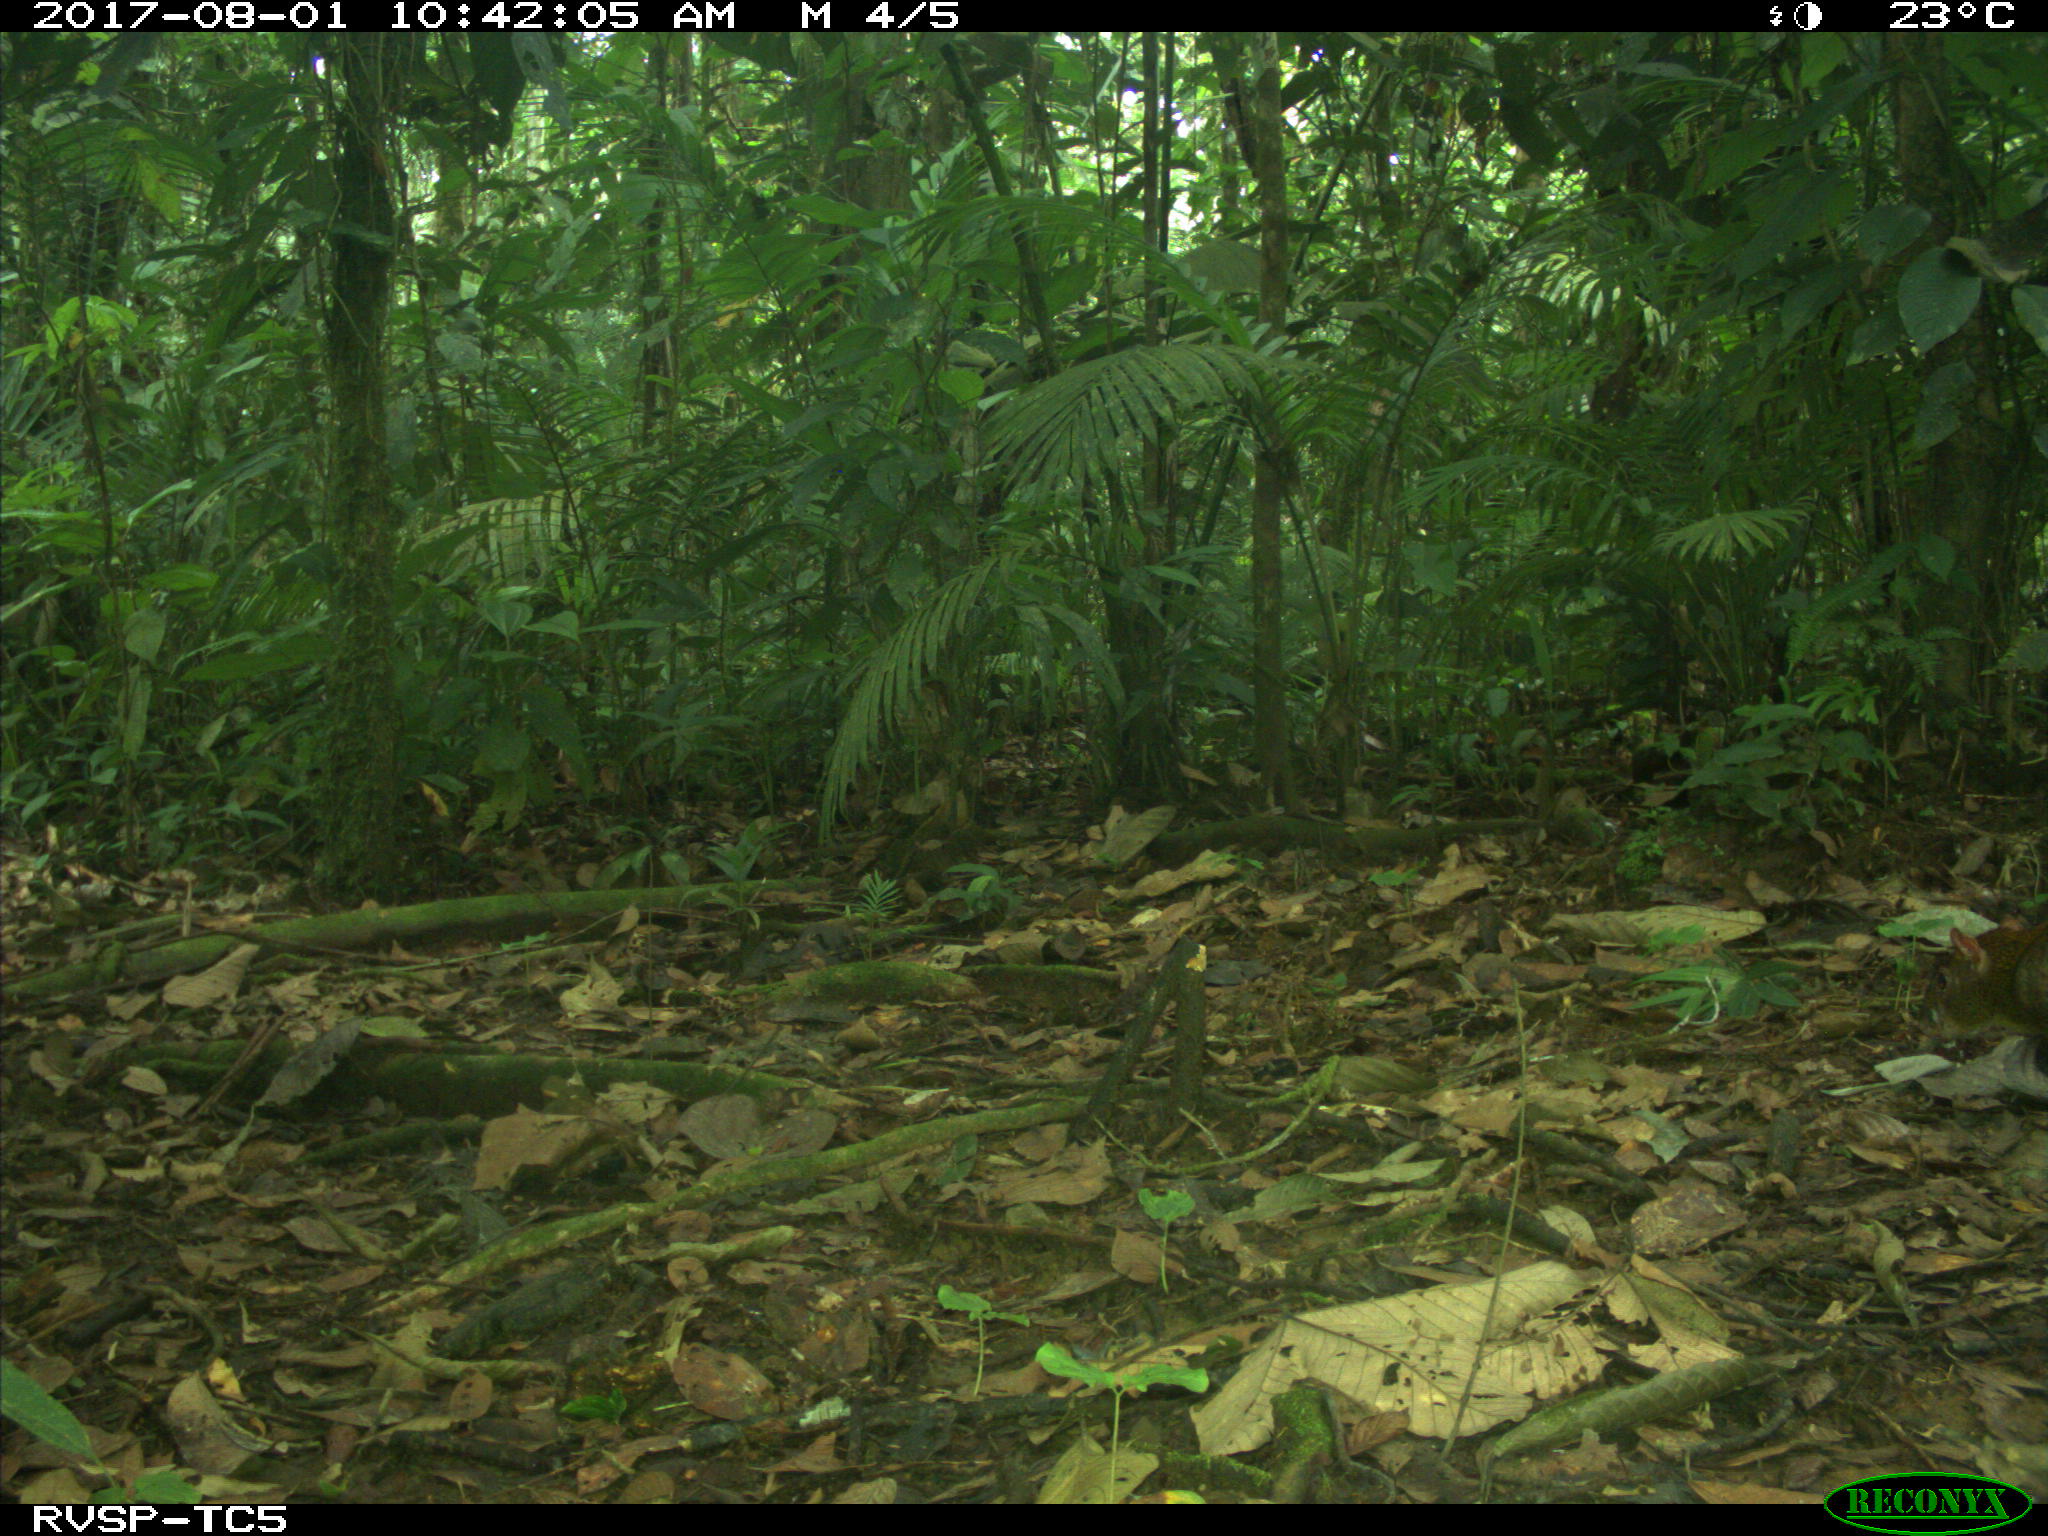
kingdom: Animalia
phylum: Chordata
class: Mammalia
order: Rodentia
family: Dasyproctidae
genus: Dasyprocta
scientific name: Dasyprocta punctata
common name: Central american agouti
